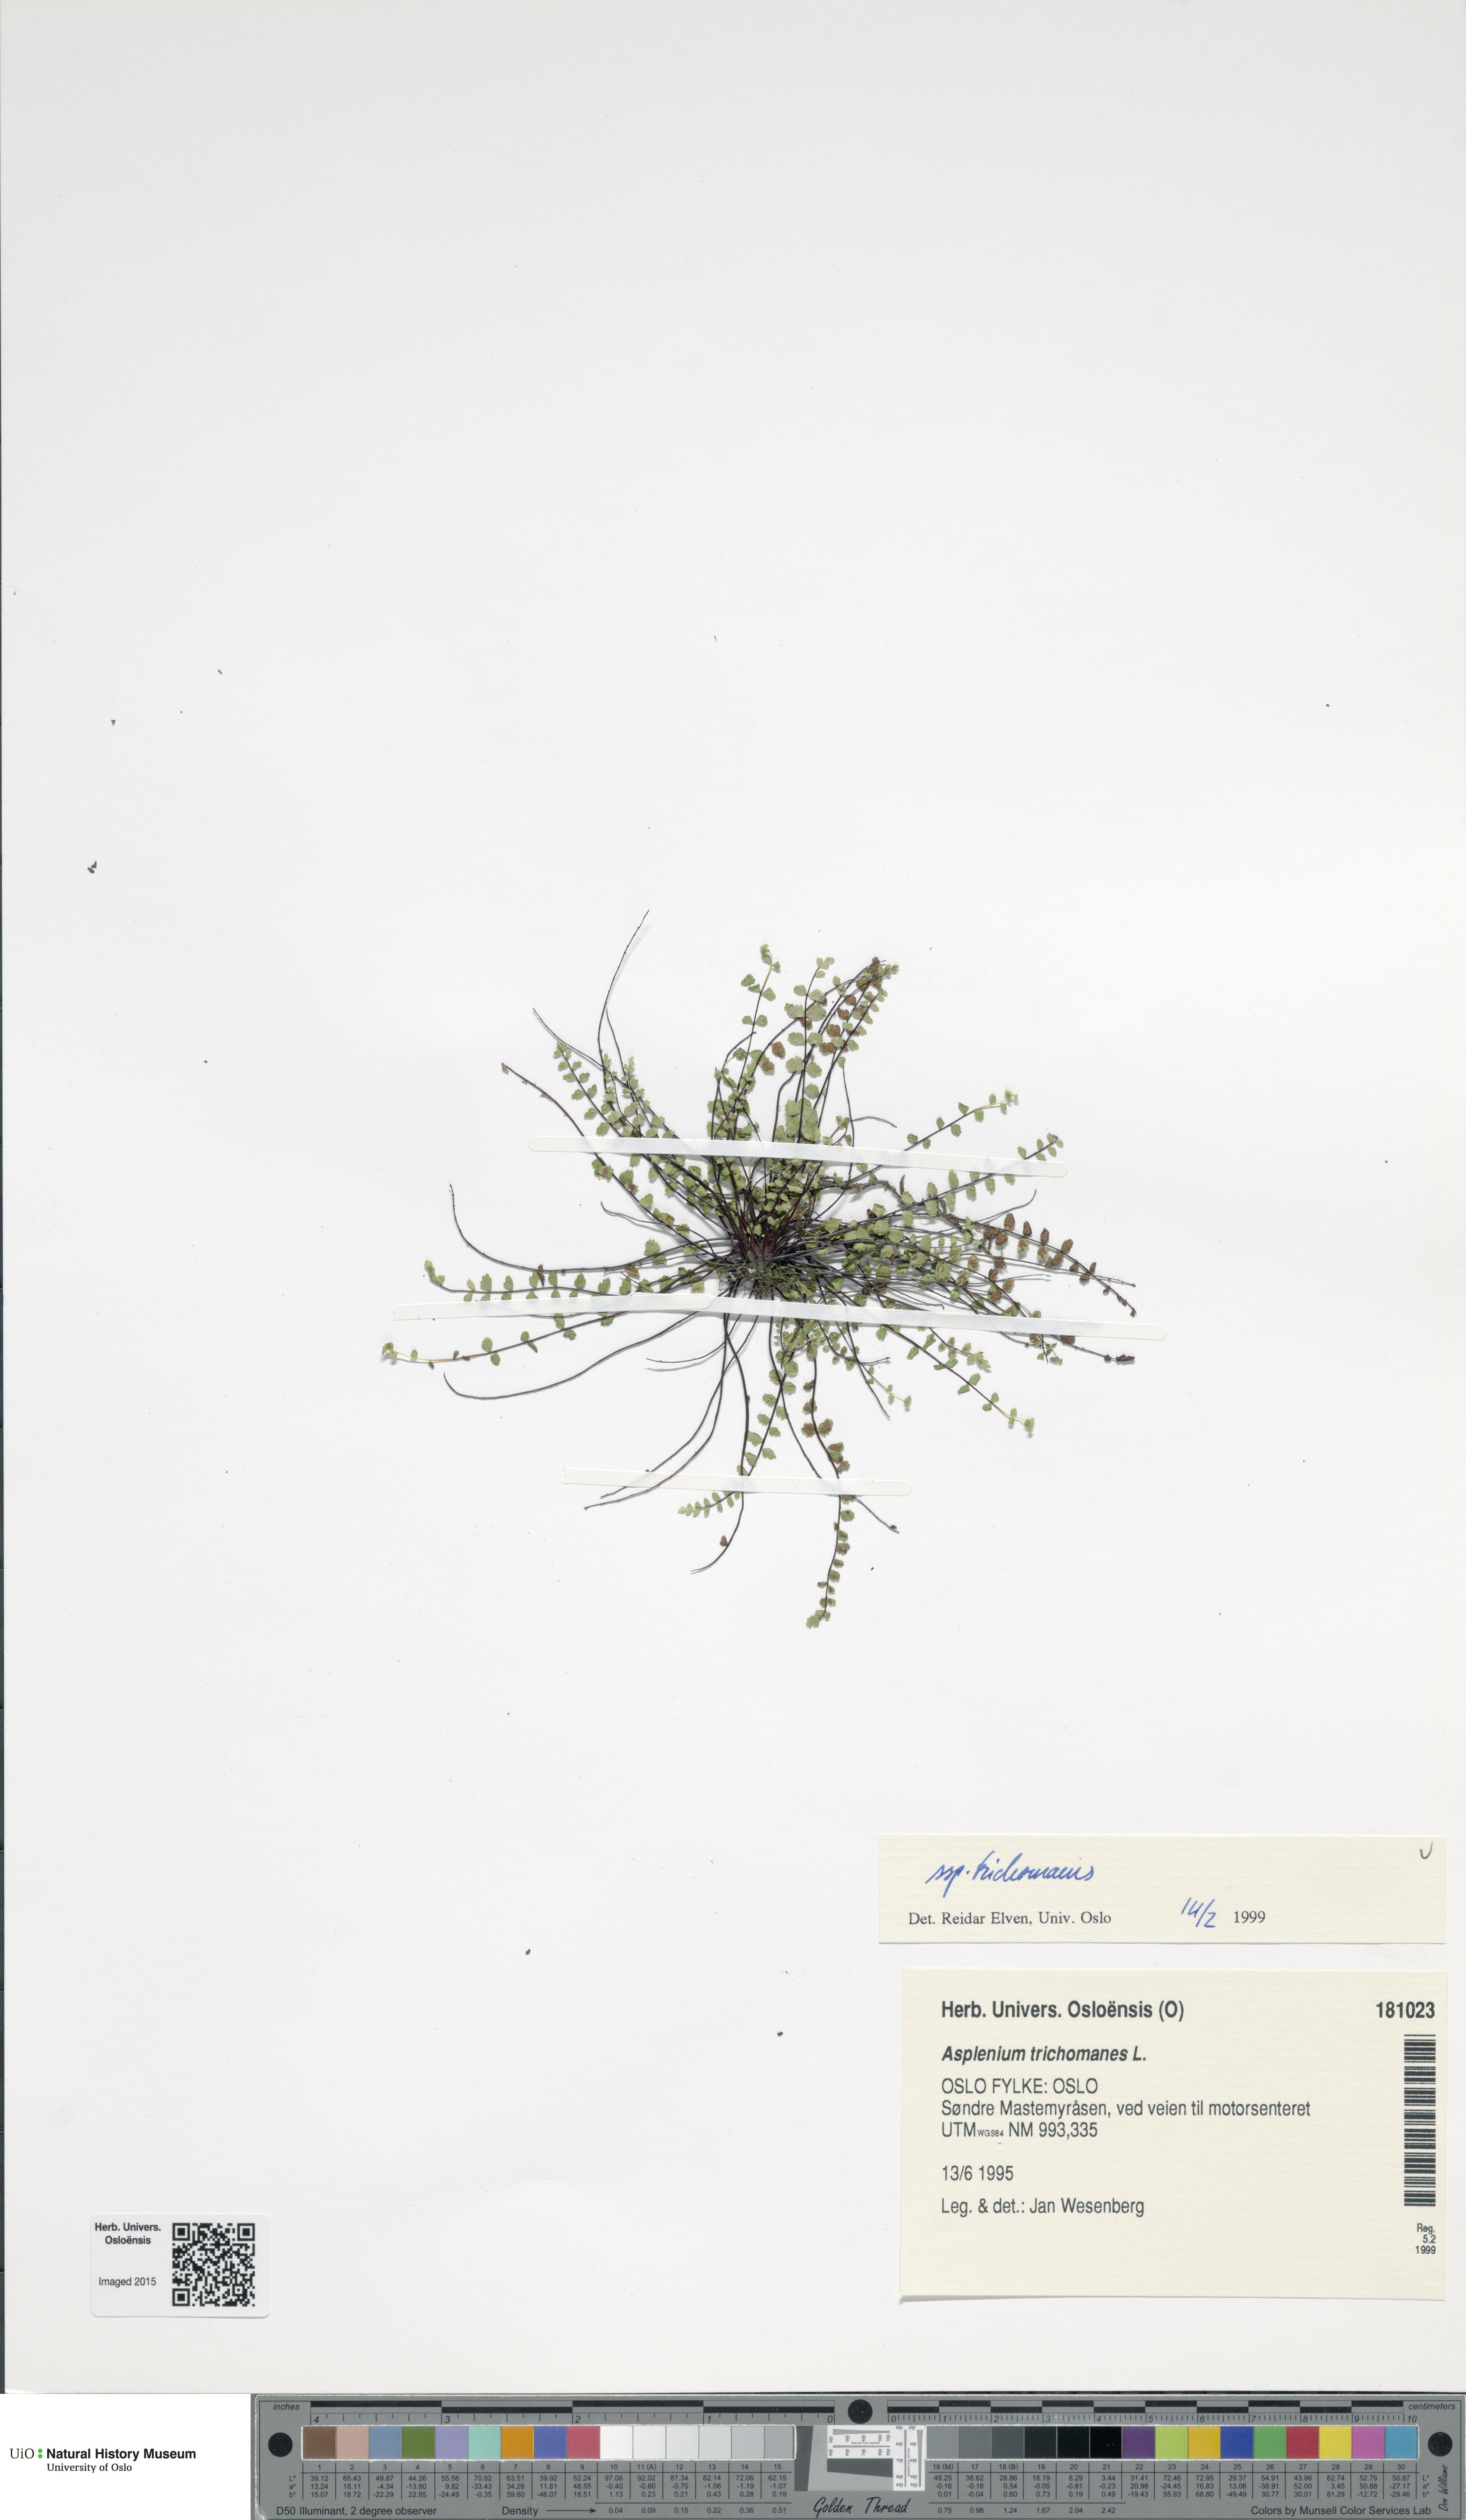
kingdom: Plantae
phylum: Tracheophyta
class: Polypodiopsida
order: Polypodiales
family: Aspleniaceae
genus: Asplenium
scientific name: Asplenium trichomanes
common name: Maidenhair spleenwort
